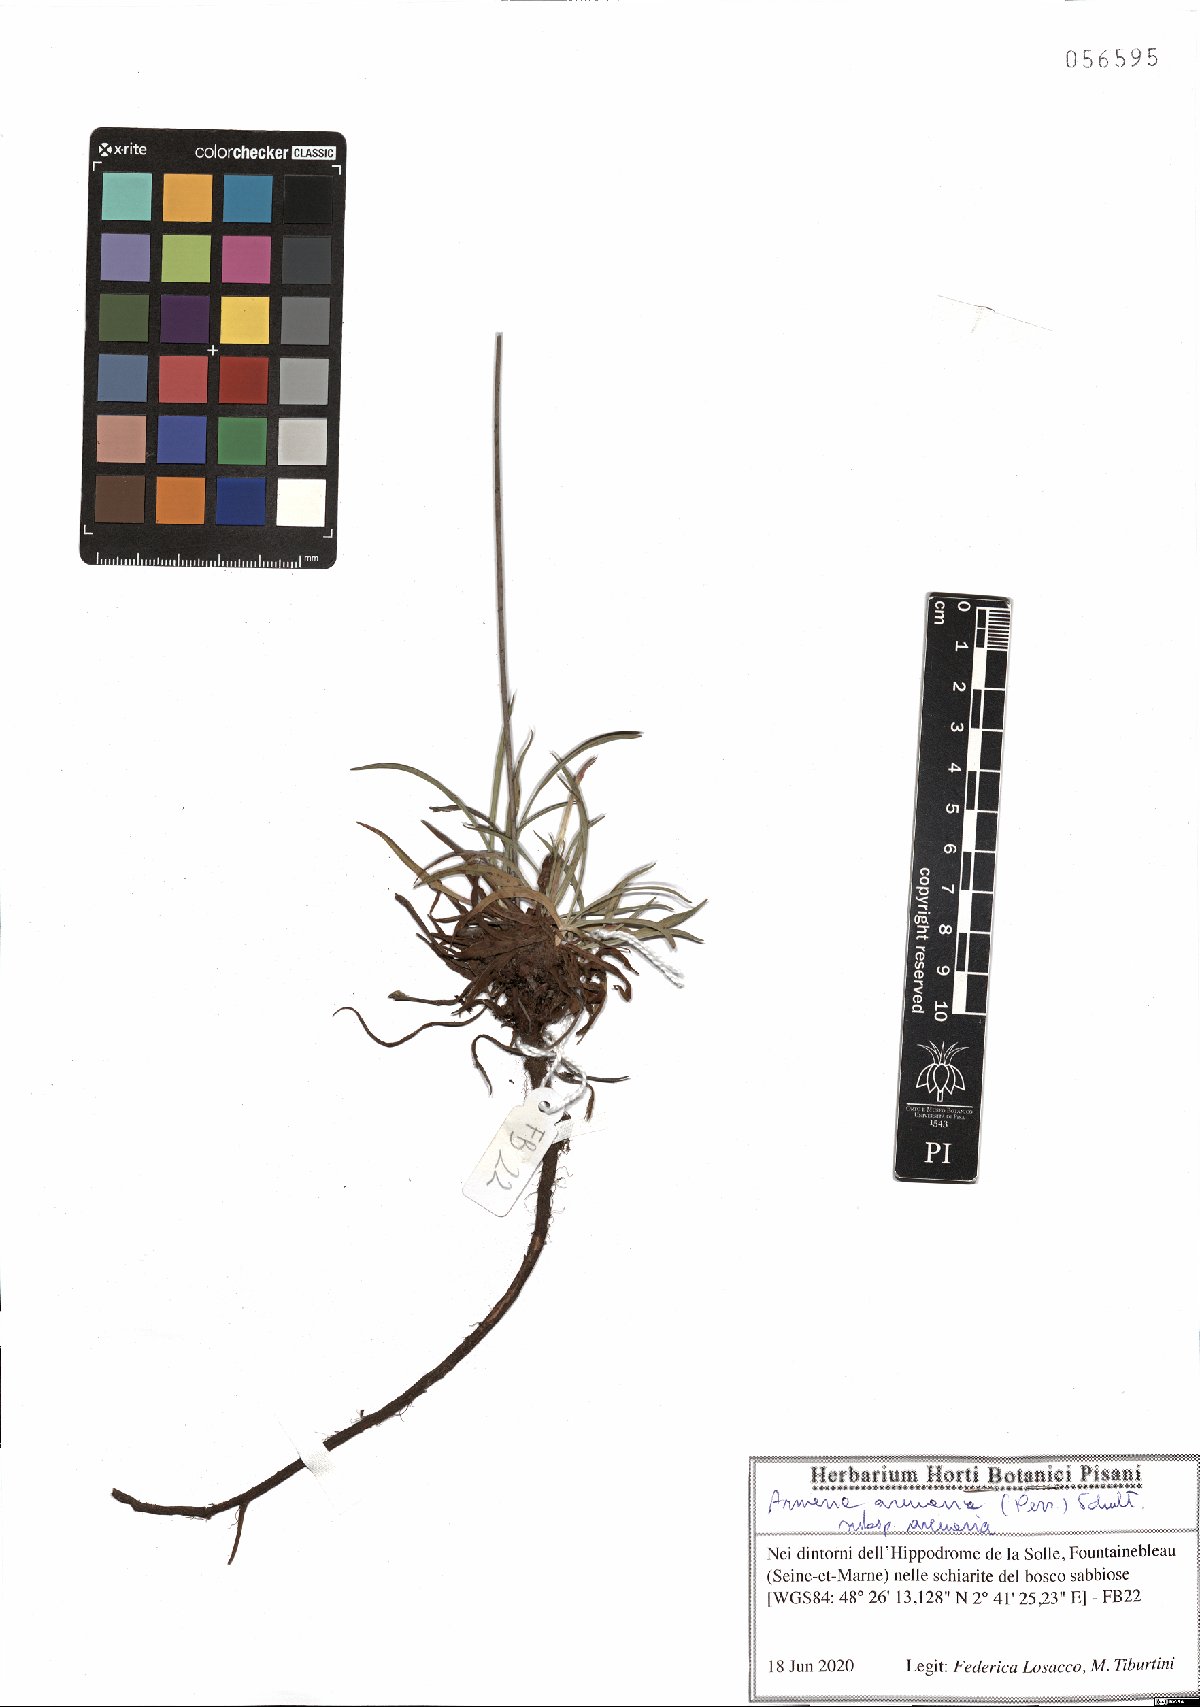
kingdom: Plantae
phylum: Tracheophyta
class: Magnoliopsida
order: Caryophyllales
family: Plumbaginaceae
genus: Armeria
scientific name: Armeria arenaria
